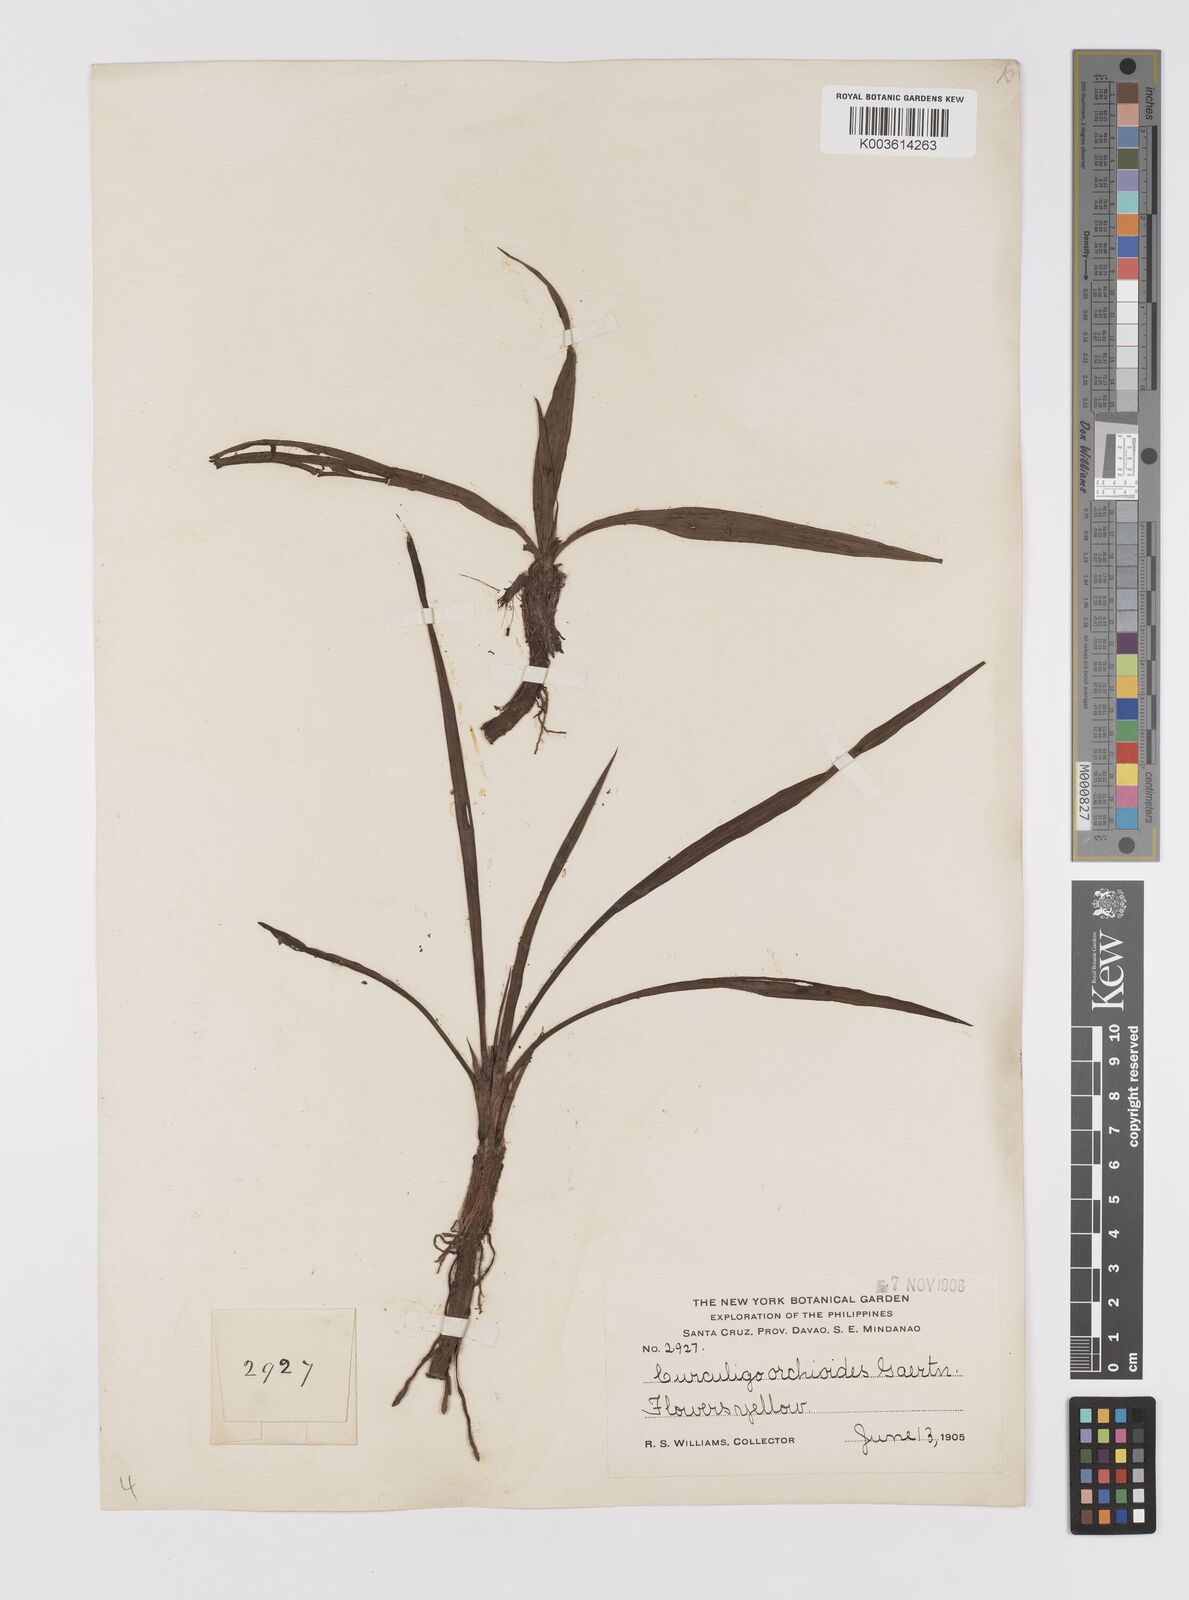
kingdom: Plantae
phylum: Tracheophyta
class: Liliopsida
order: Asparagales
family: Hypoxidaceae
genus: Curculigo
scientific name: Curculigo orchioides
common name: Golden eye-grass
